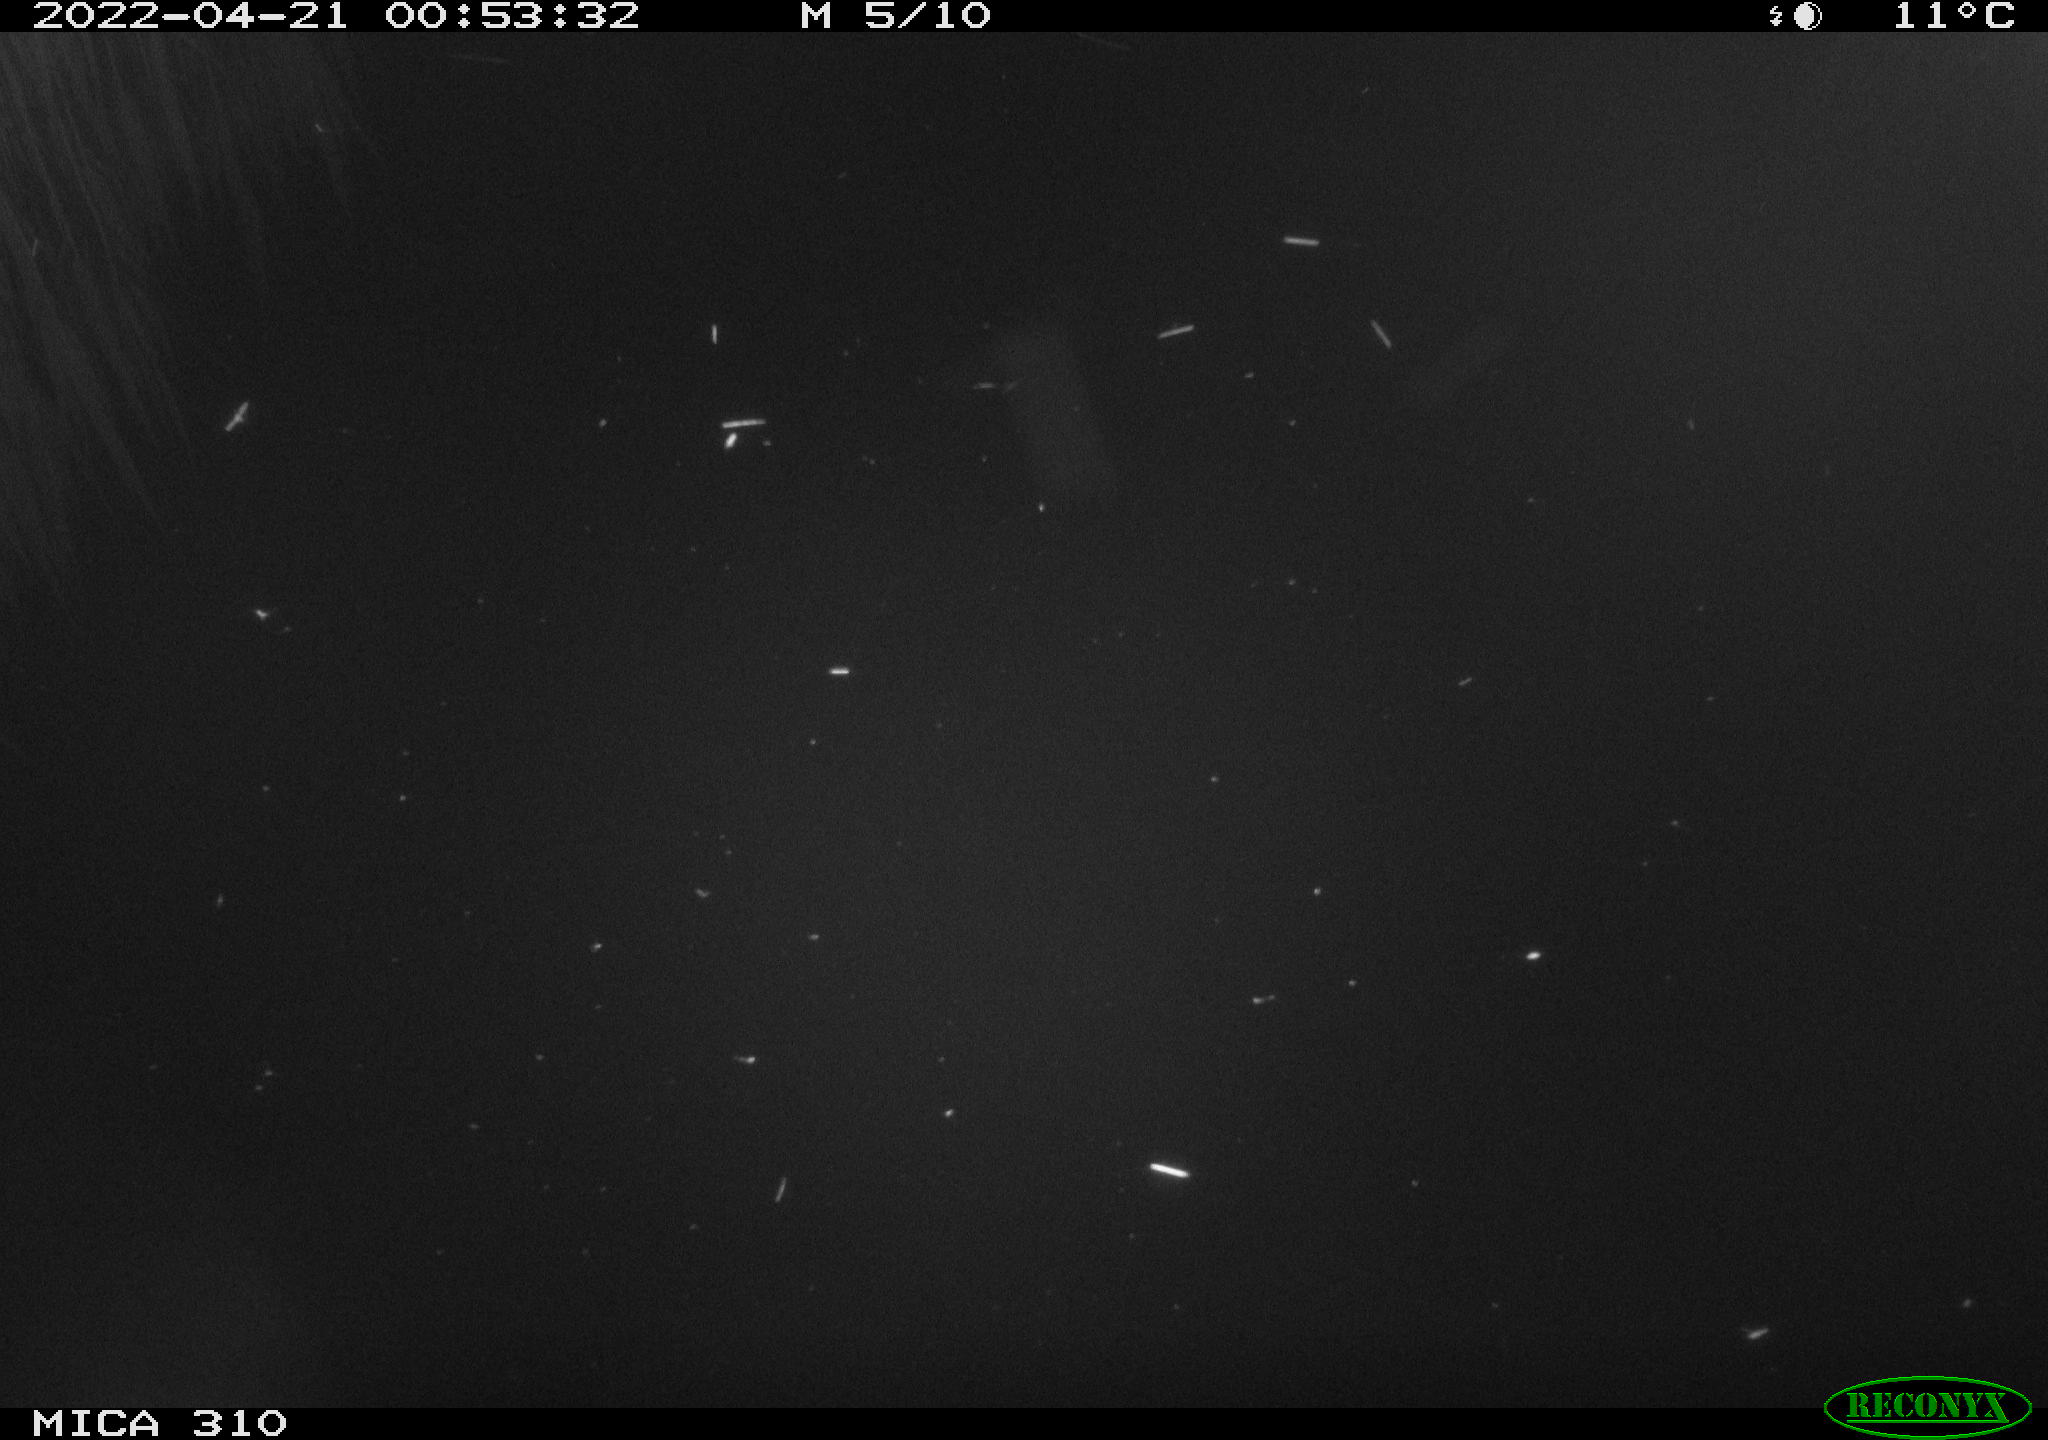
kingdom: Animalia
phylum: Chordata
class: Aves
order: Anseriformes
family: Anatidae
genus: Anas
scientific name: Anas platyrhynchos
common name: Mallard
